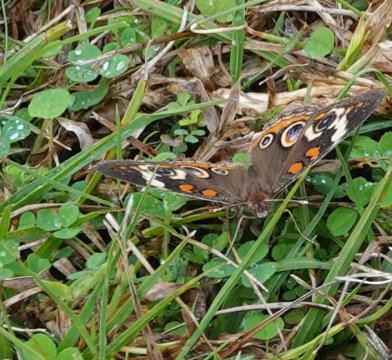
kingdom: Animalia
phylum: Arthropoda
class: Insecta
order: Lepidoptera
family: Nymphalidae
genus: Junonia
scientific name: Junonia coenia
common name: Common Buckeye
